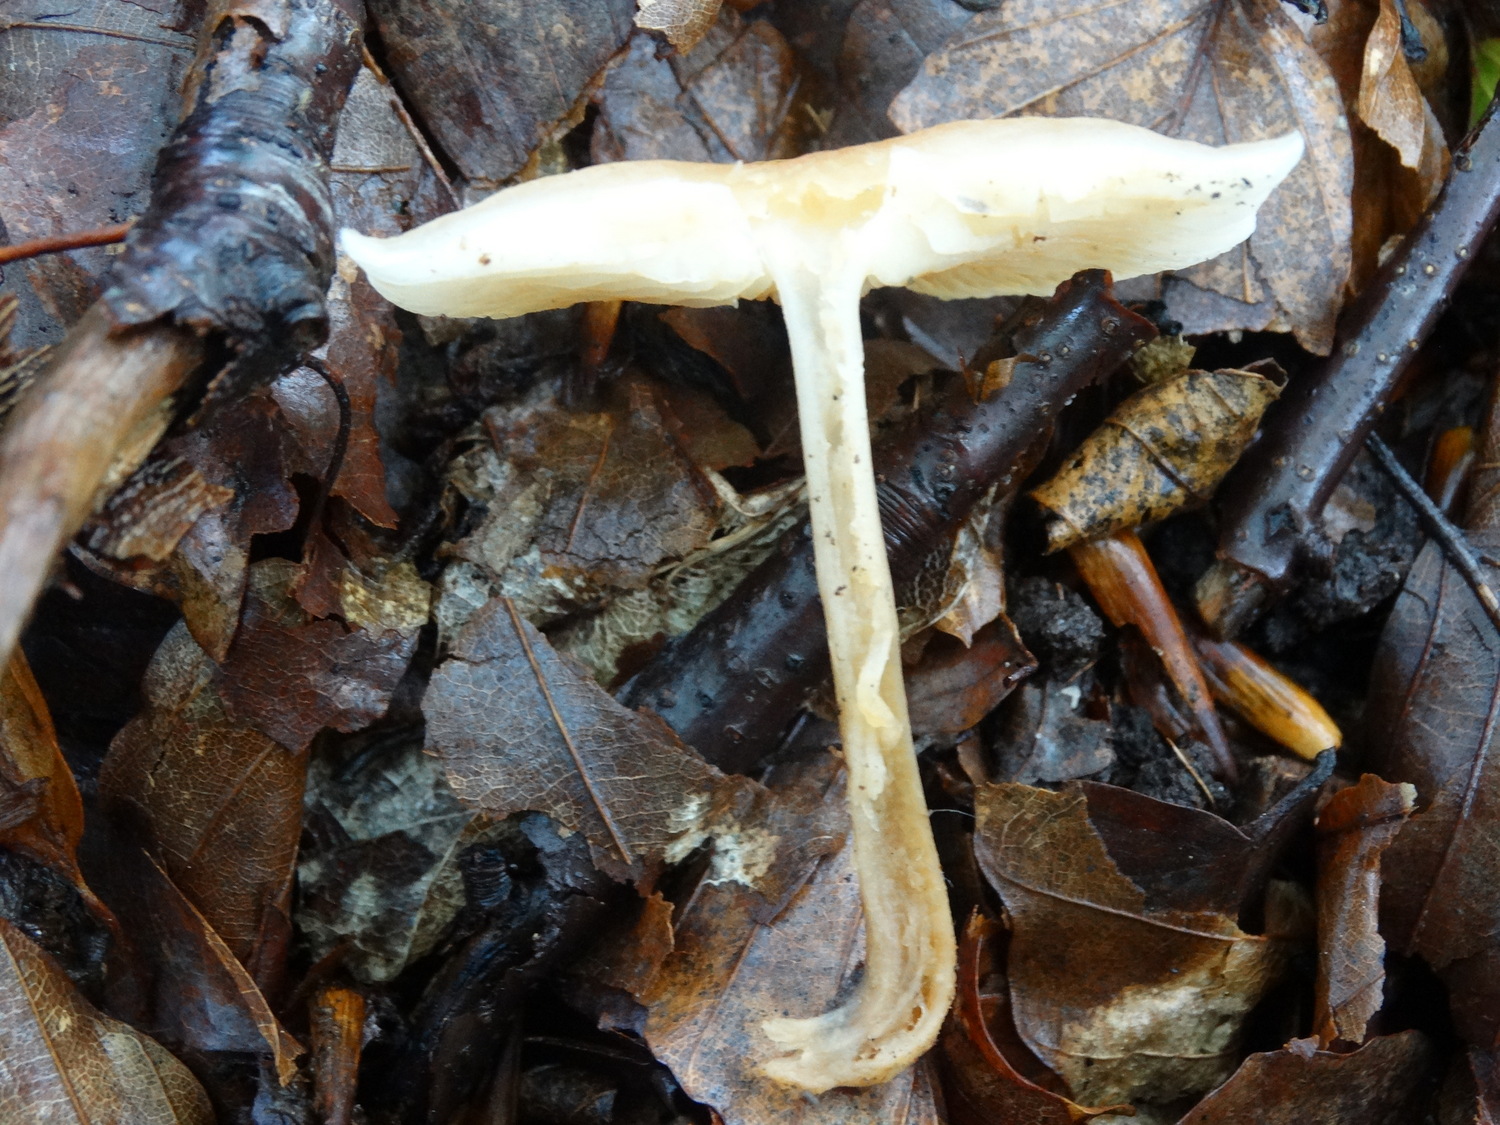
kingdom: Fungi
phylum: Basidiomycota
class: Agaricomycetes
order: Agaricales
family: Omphalotaceae
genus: Gymnopus
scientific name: Gymnopus dryophilus
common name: løv-fladhat
